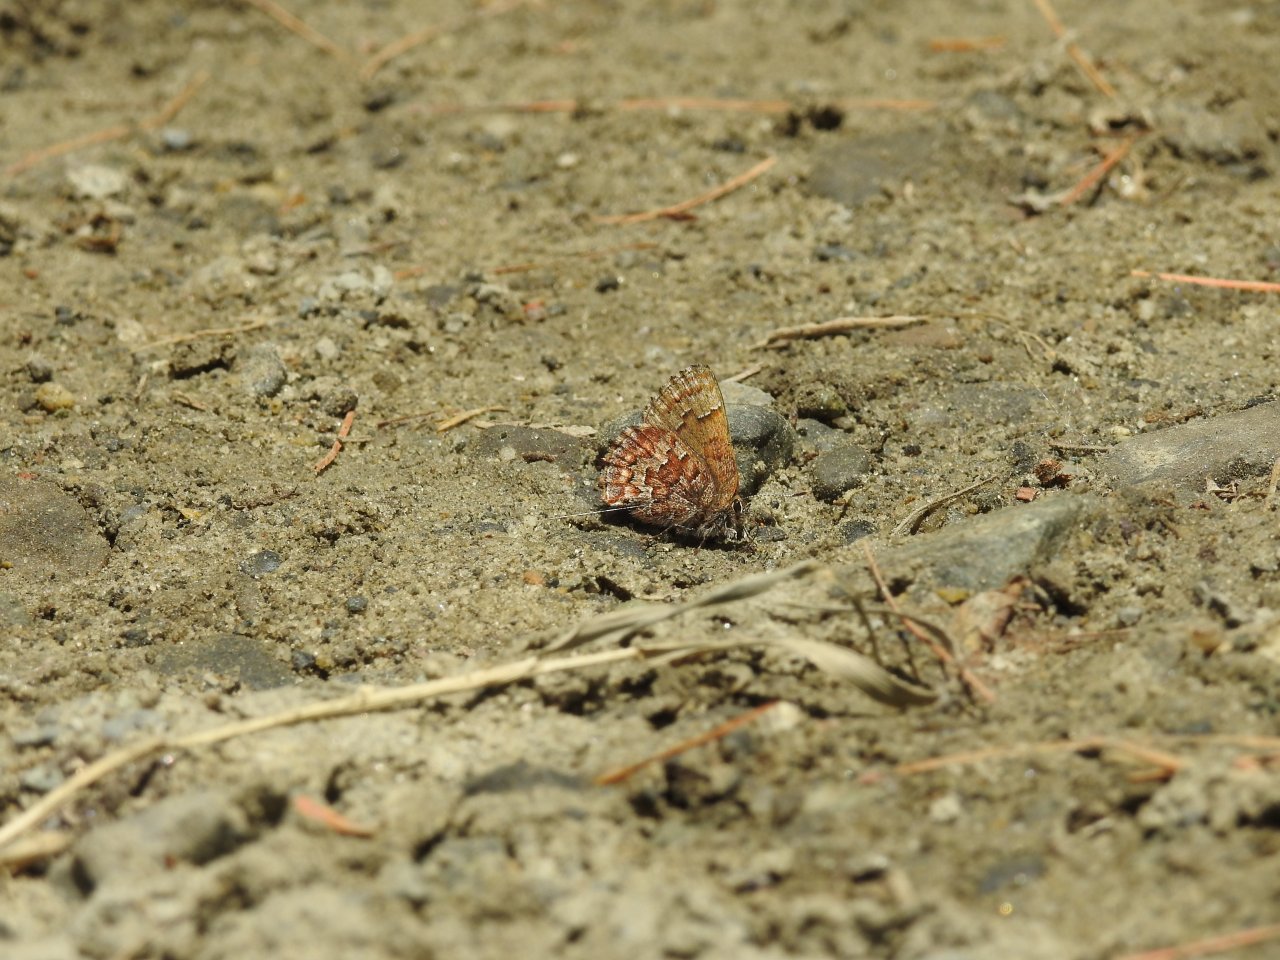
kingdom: Animalia
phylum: Arthropoda
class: Insecta
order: Lepidoptera
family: Lycaenidae
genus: Incisalia
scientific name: Incisalia niphon
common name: Eastern Pine Elfin
